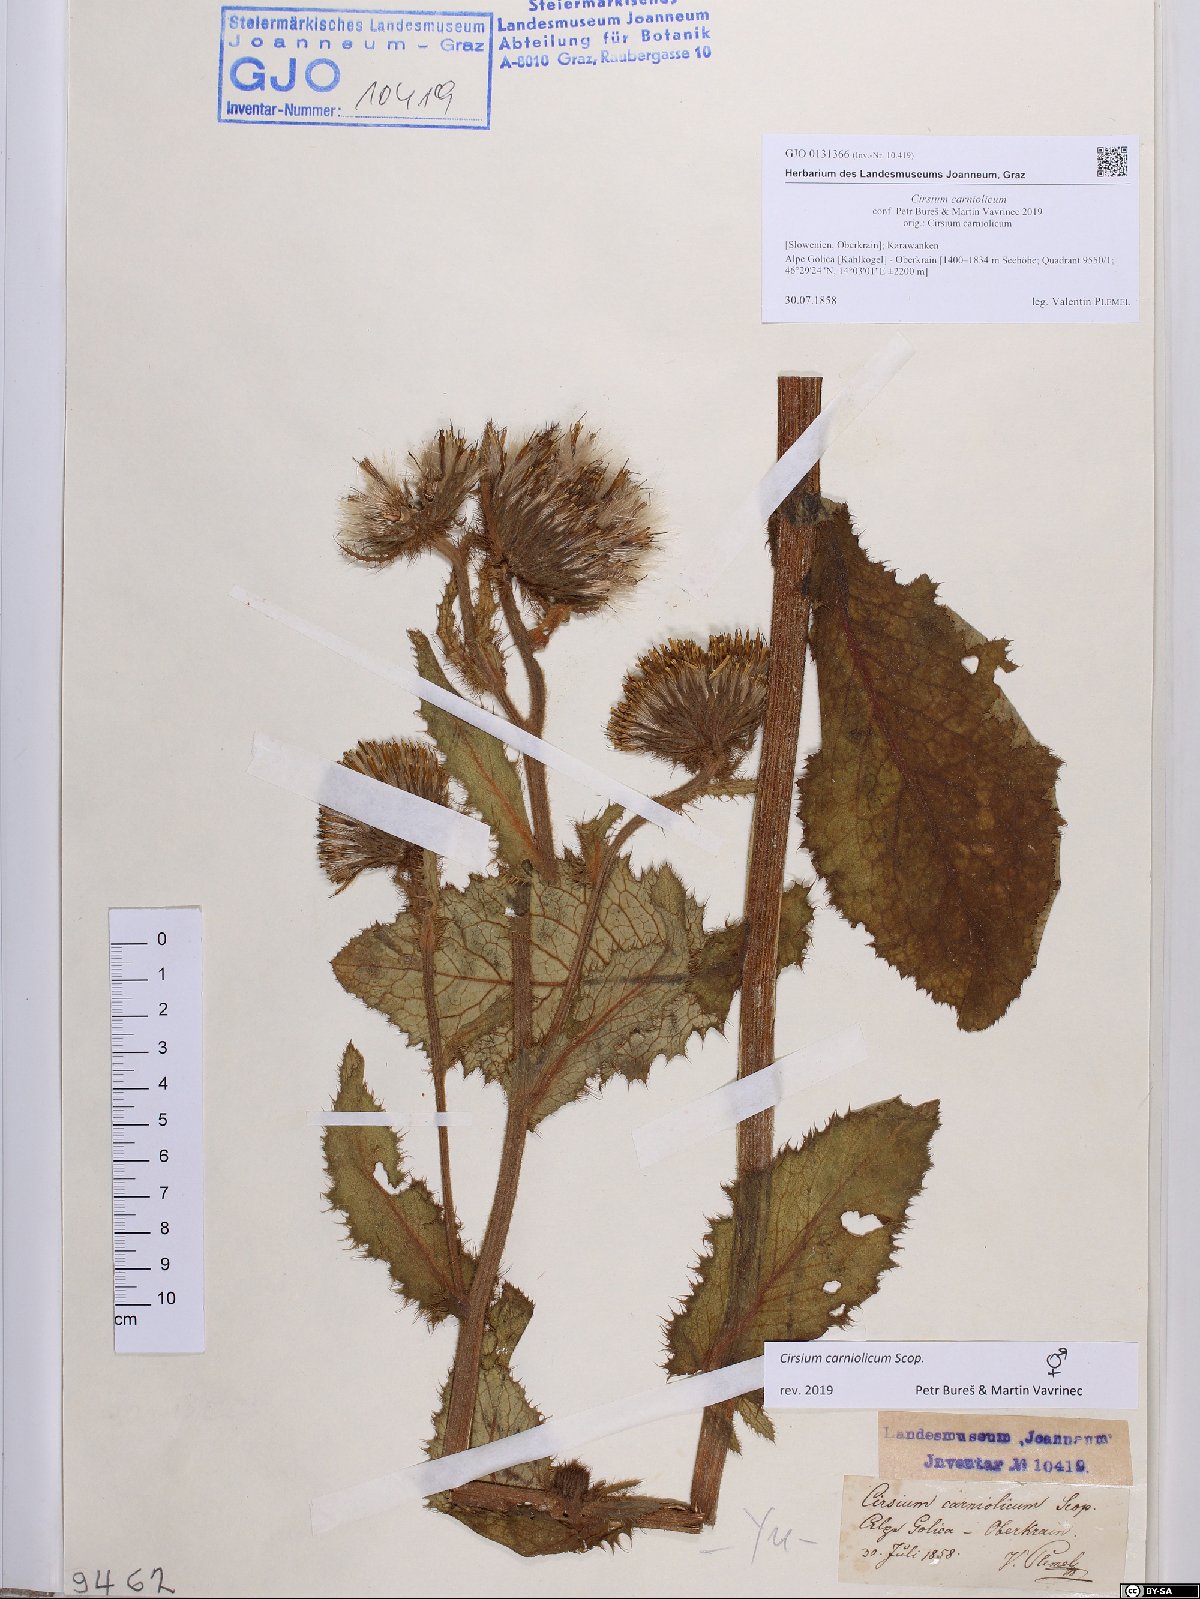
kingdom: Plantae
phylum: Tracheophyta
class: Magnoliopsida
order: Asterales
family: Asteraceae
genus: Cirsium
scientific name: Cirsium carniolicum
